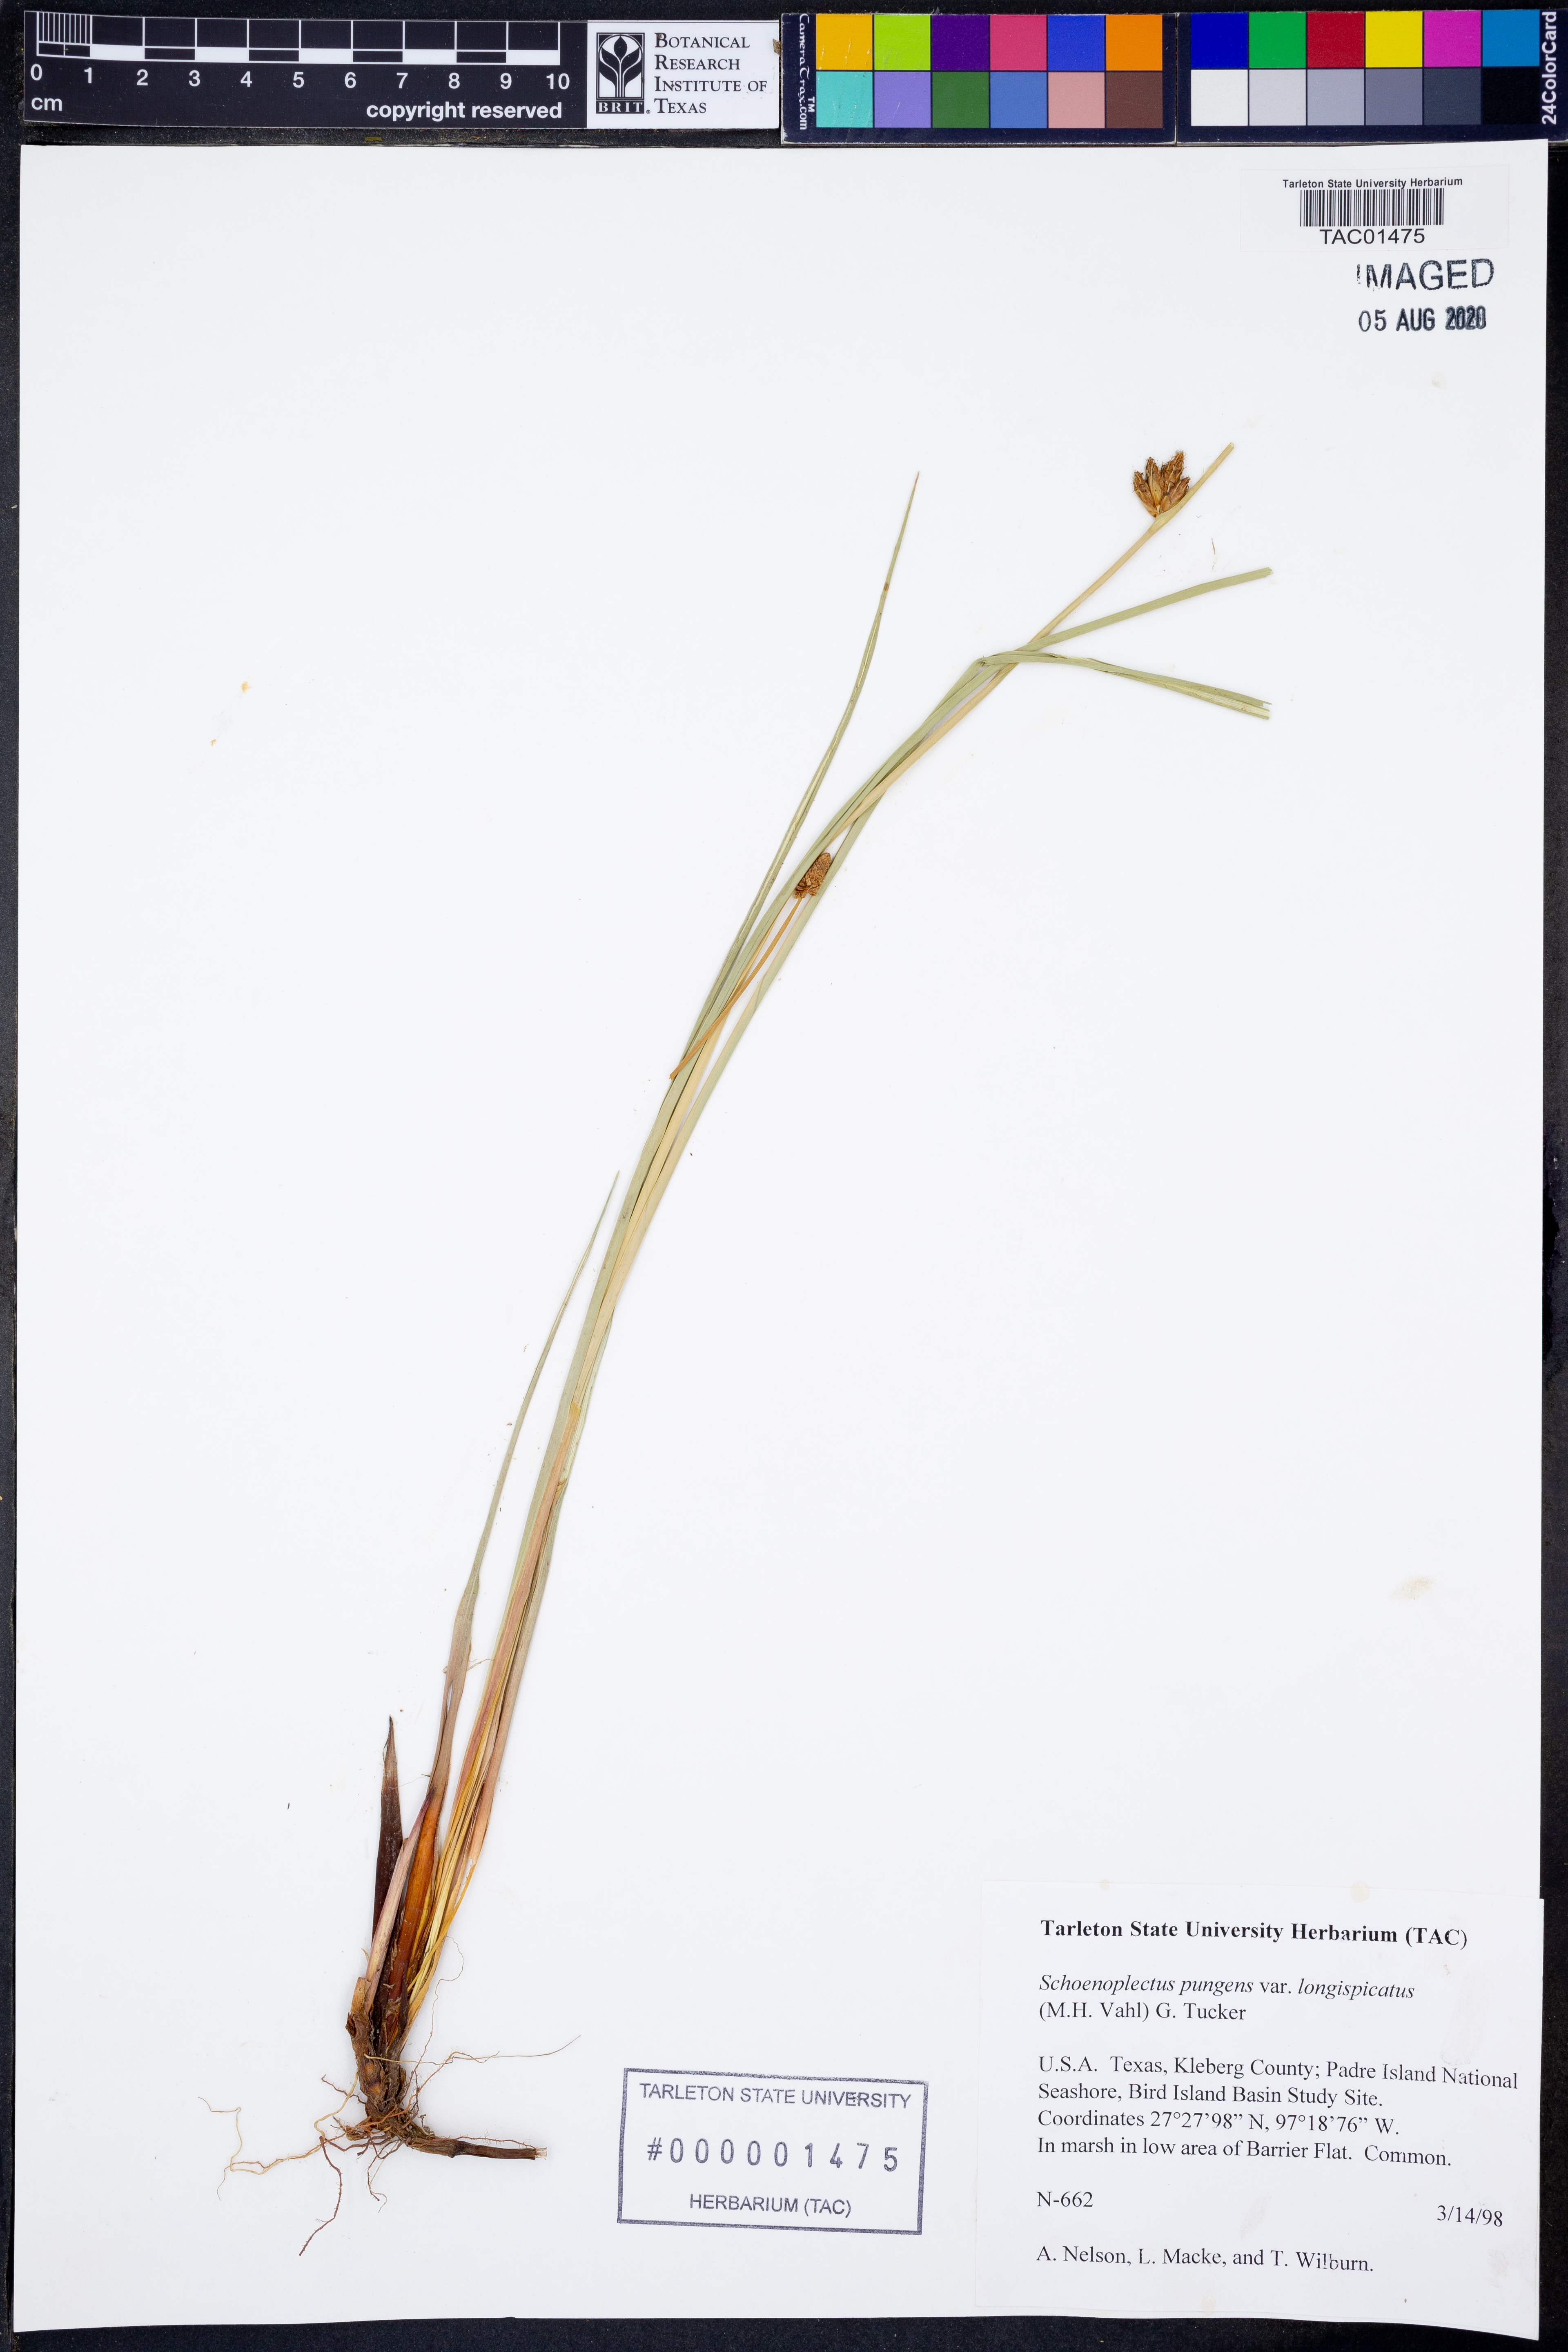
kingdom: Plantae
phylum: Tracheophyta
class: Liliopsida
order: Poales
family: Cyperaceae
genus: Schoenoplectus
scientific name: Schoenoplectus pungens
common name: Sharp club-rush
